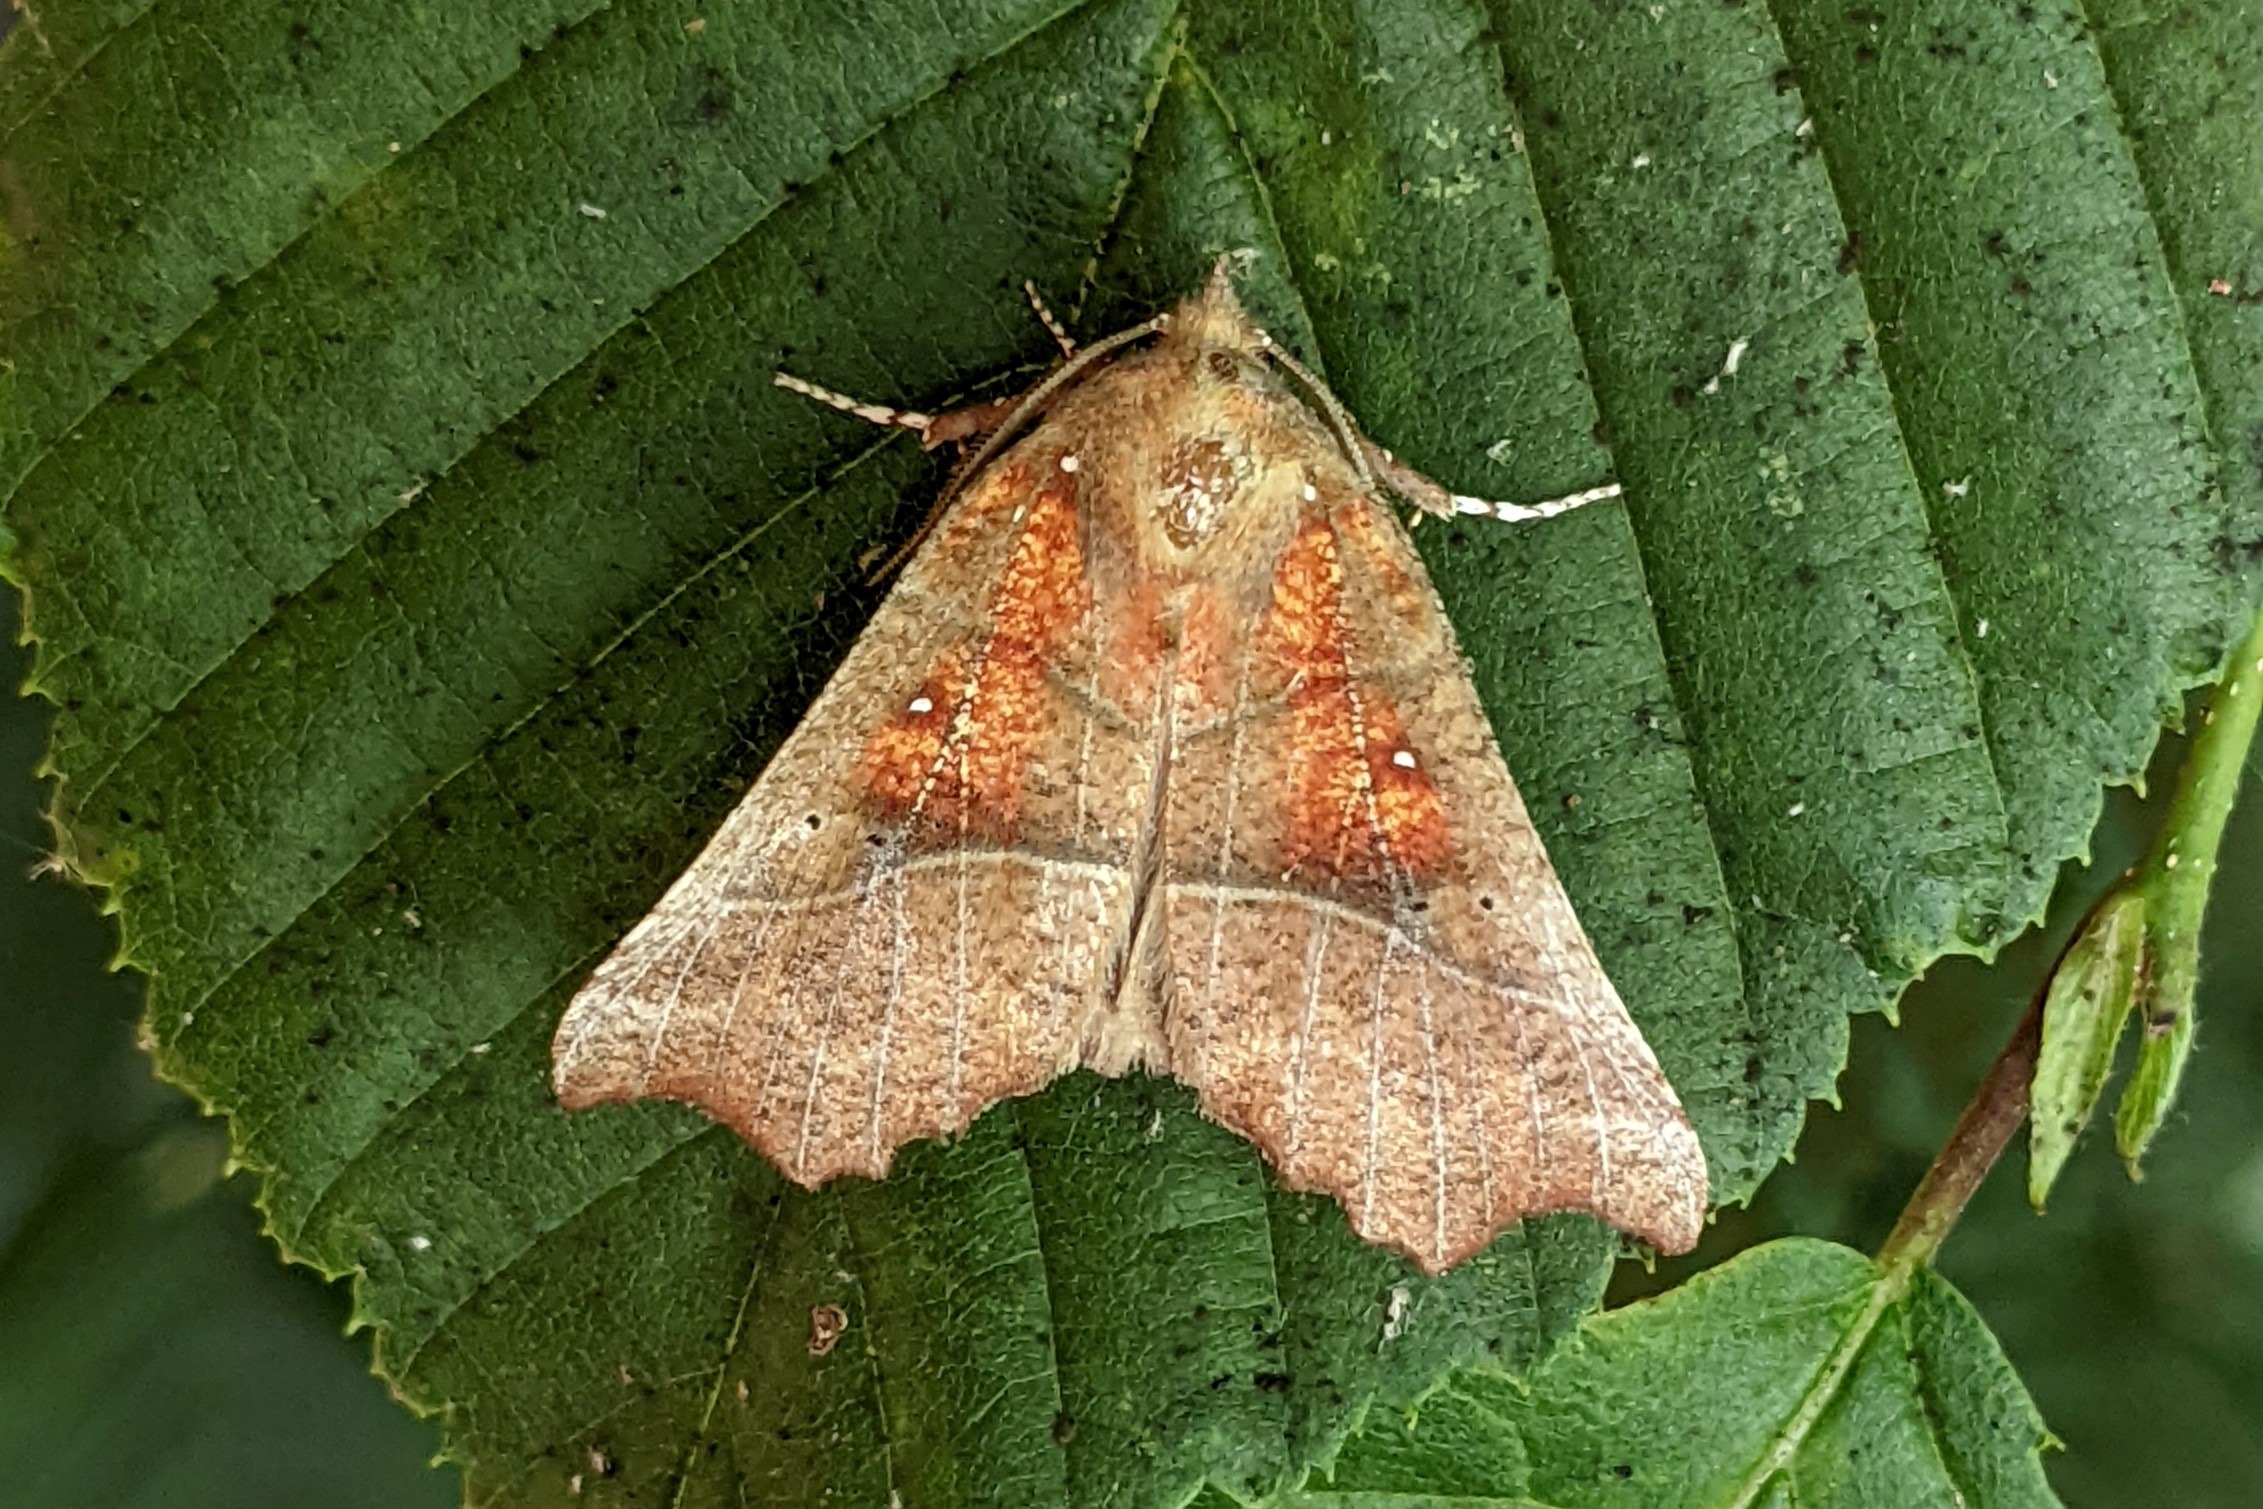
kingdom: Animalia
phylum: Arthropoda
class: Insecta
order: Lepidoptera
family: Erebidae
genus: Scoliopteryx
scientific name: Scoliopteryx libatrix
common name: Husmoderugle
